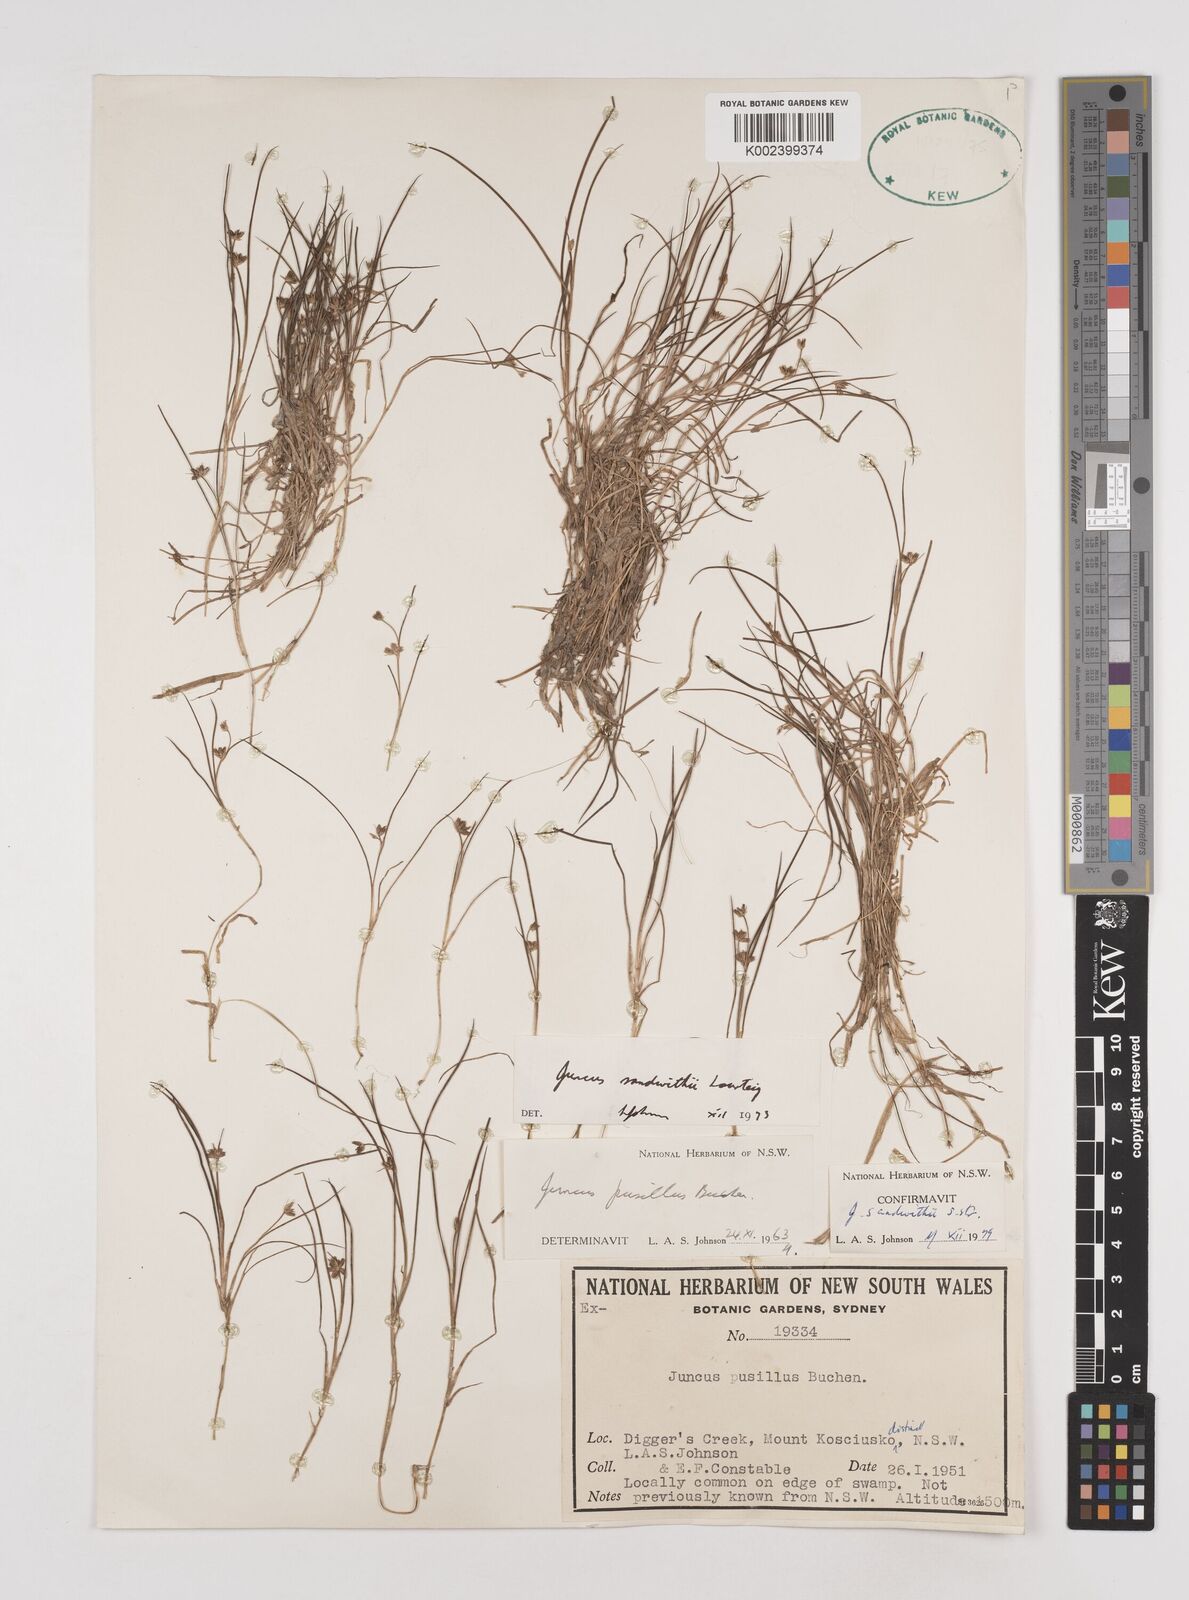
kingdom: Plantae
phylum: Tracheophyta
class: Liliopsida
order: Poales
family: Juncaceae
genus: Juncus
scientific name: Juncus sandwithii
